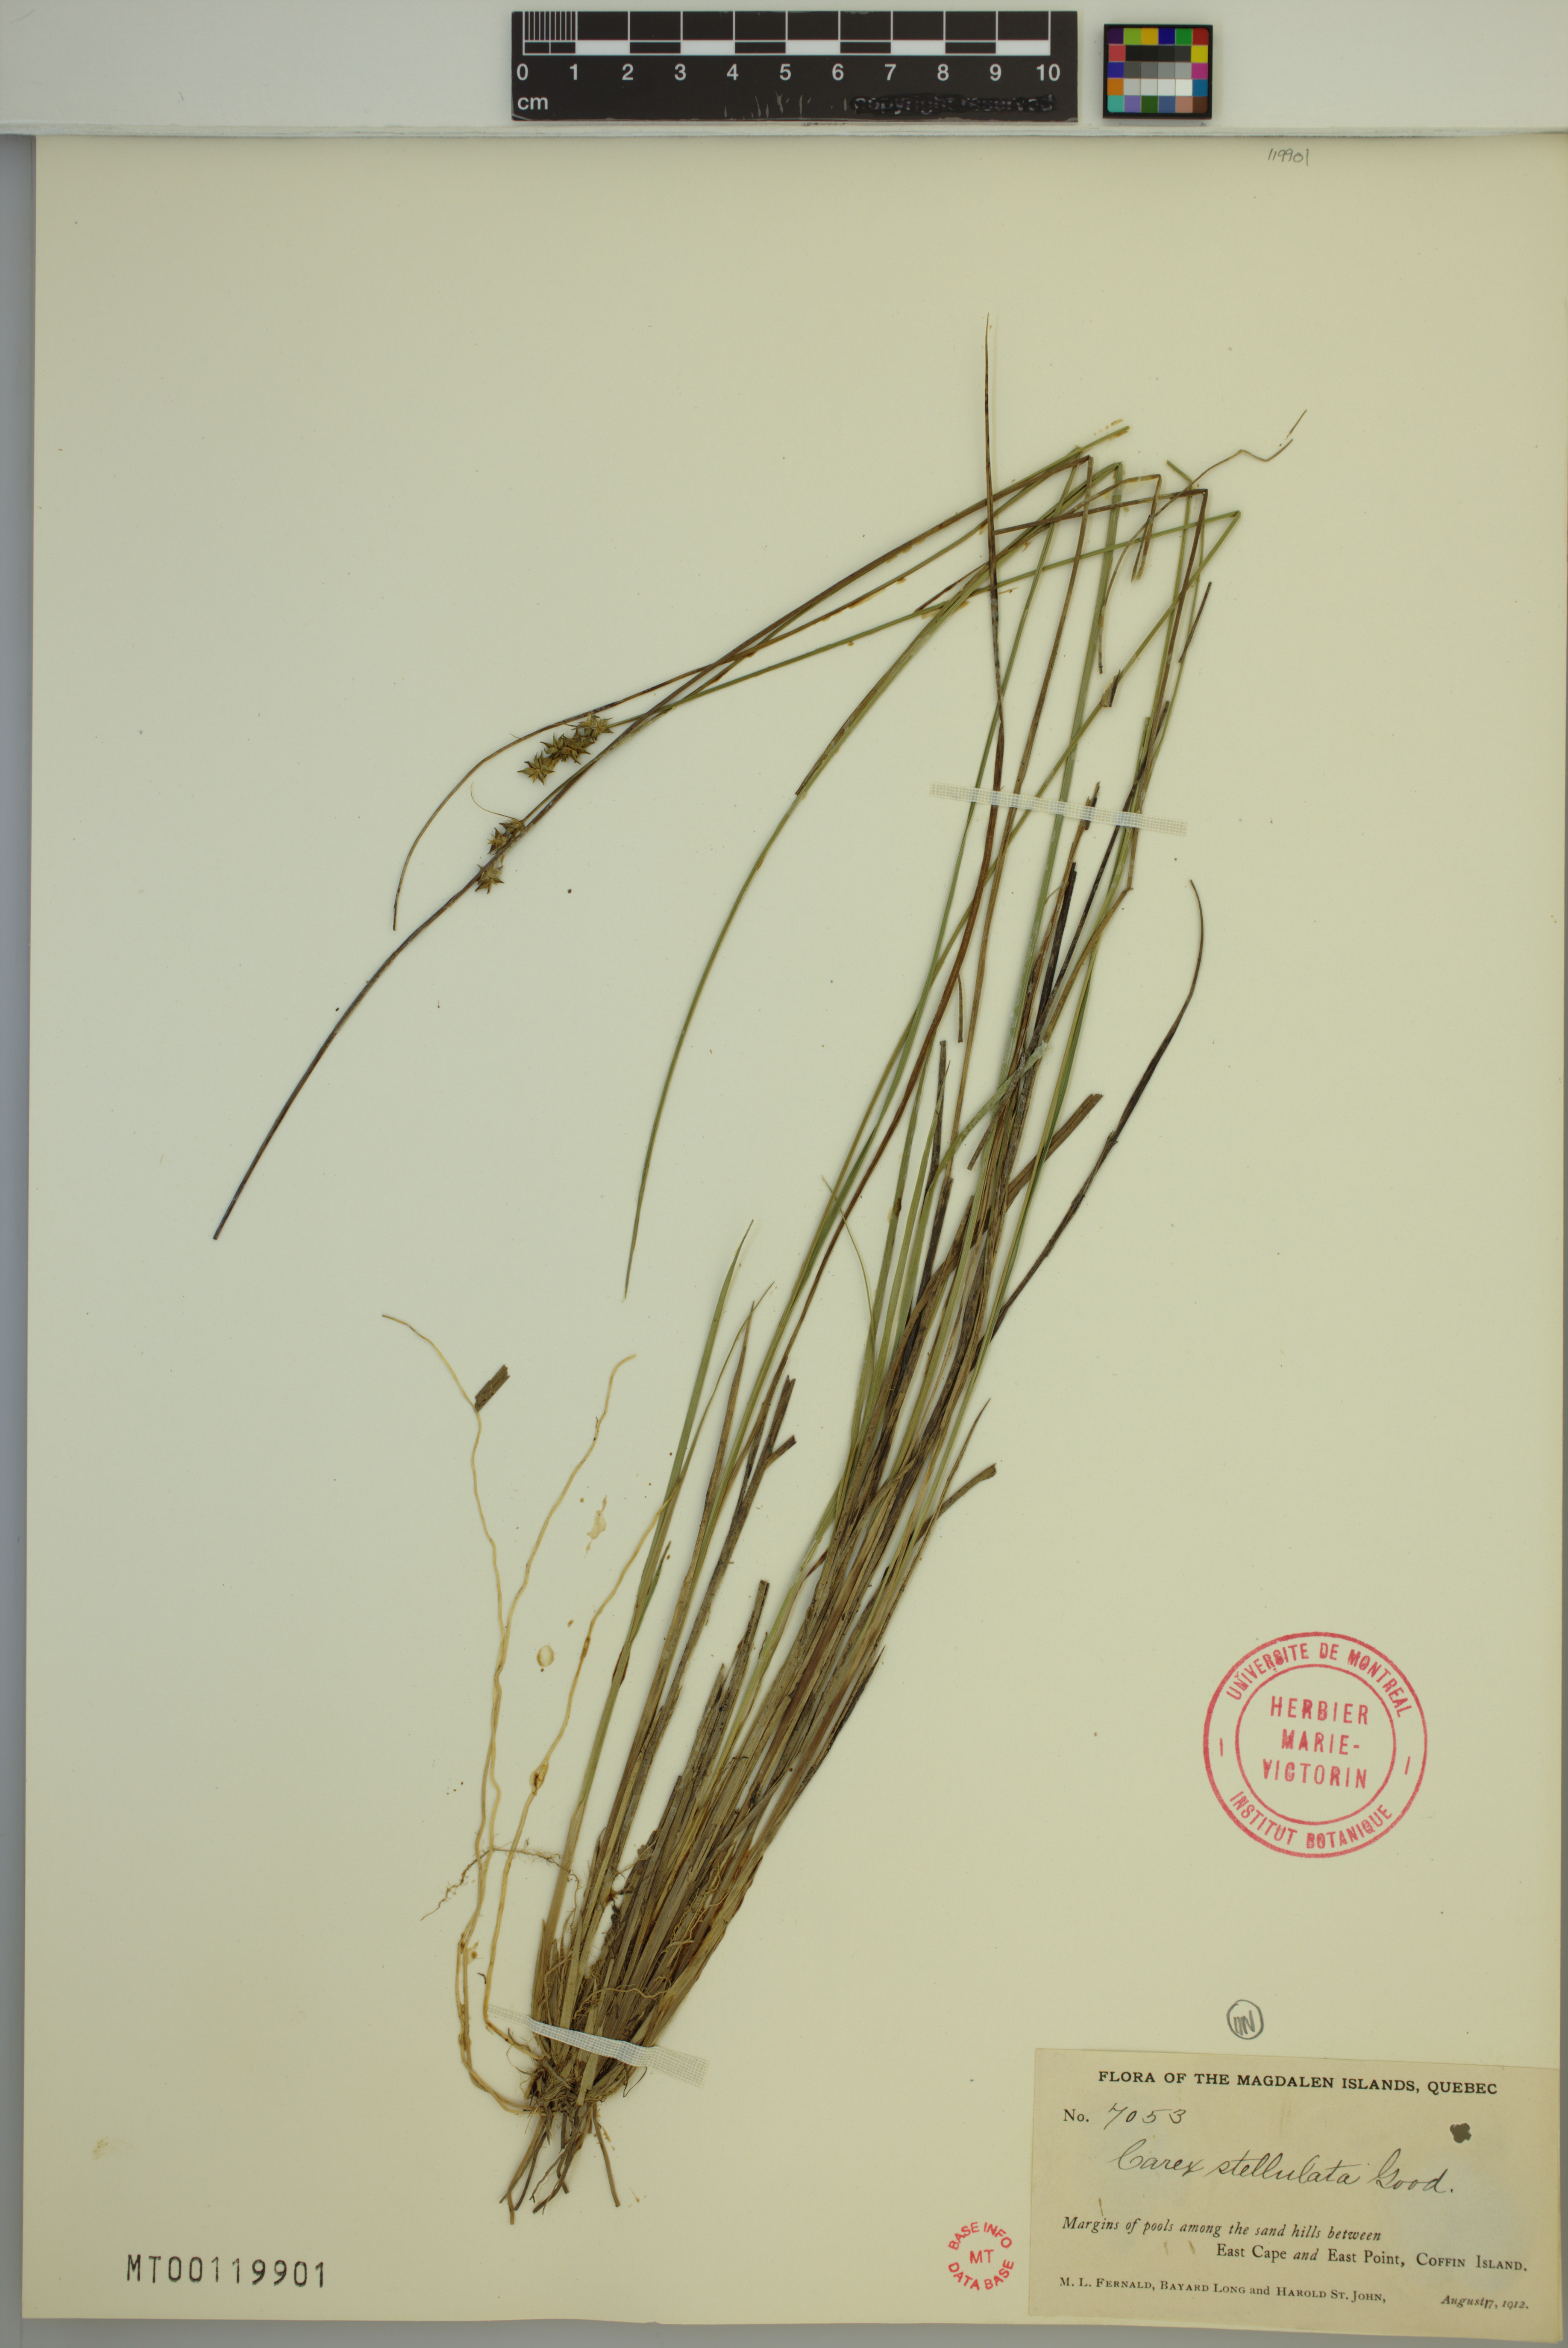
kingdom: Plantae
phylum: Tracheophyta
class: Liliopsida
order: Poales
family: Cyperaceae
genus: Carex
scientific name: Carex echinata
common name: Star sedge
